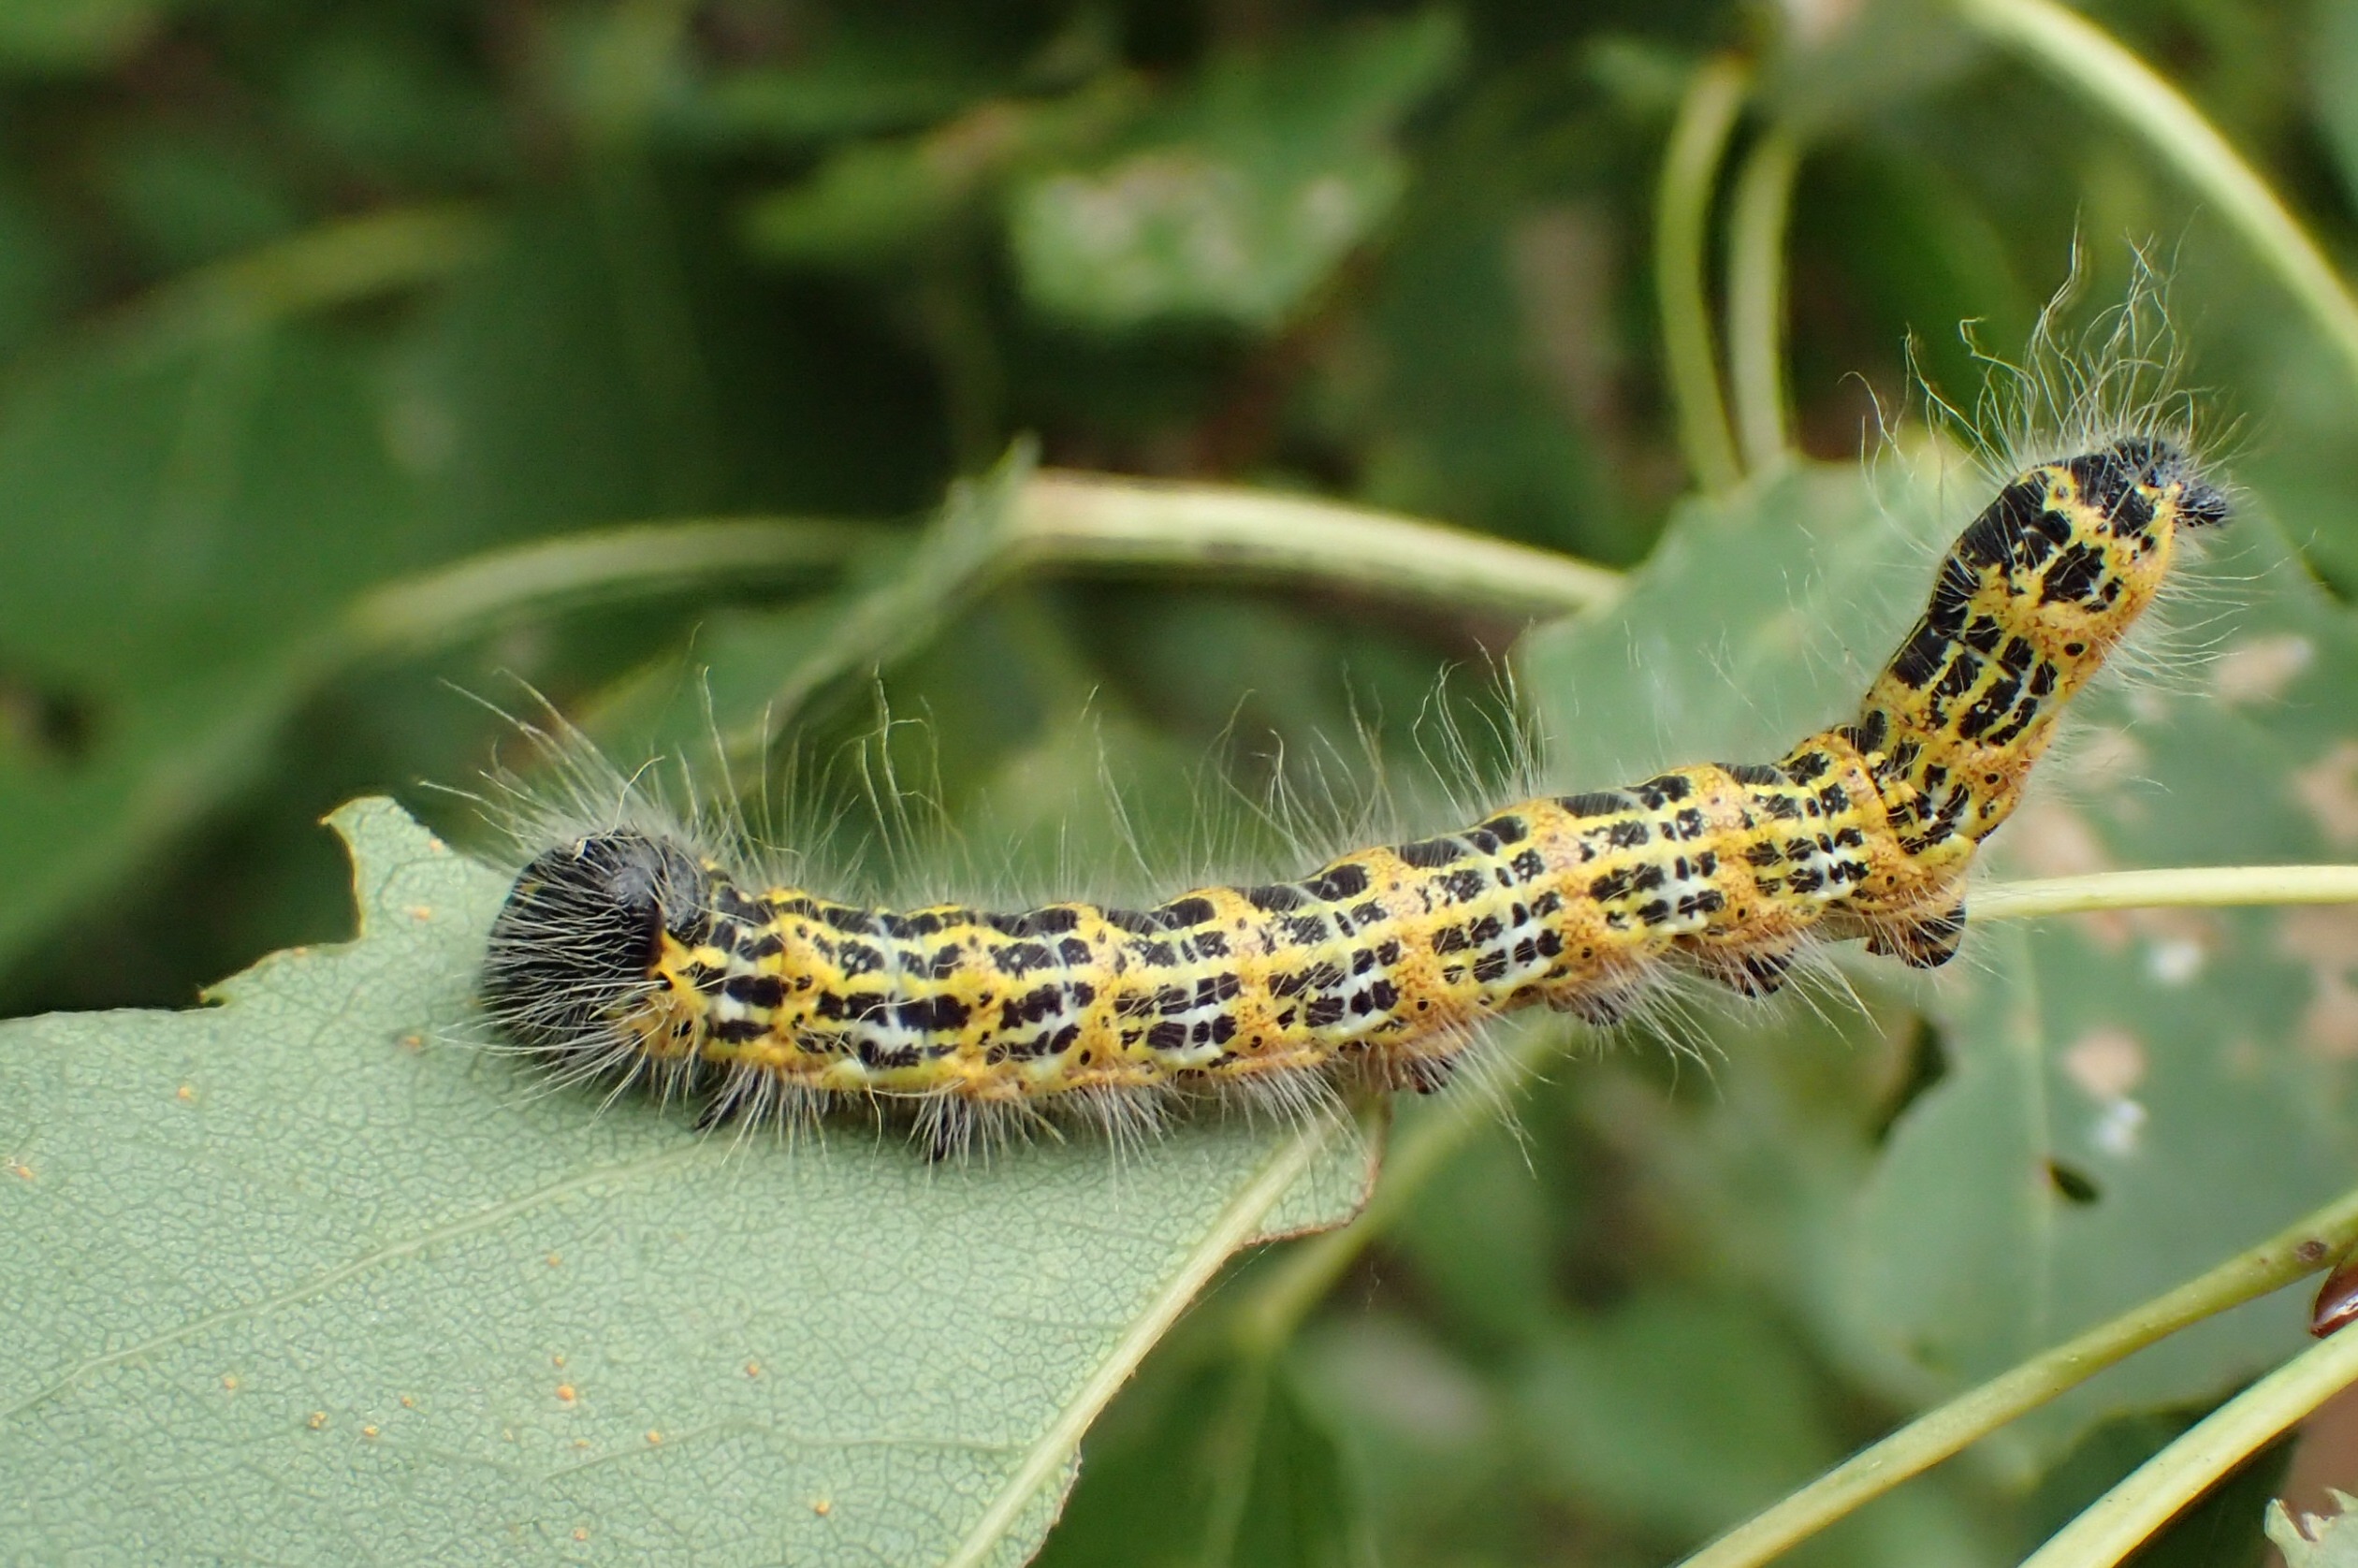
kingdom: Animalia
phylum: Arthropoda
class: Insecta
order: Lepidoptera
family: Notodontidae
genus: Phalera
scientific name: Phalera bucephala
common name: Måneplet
